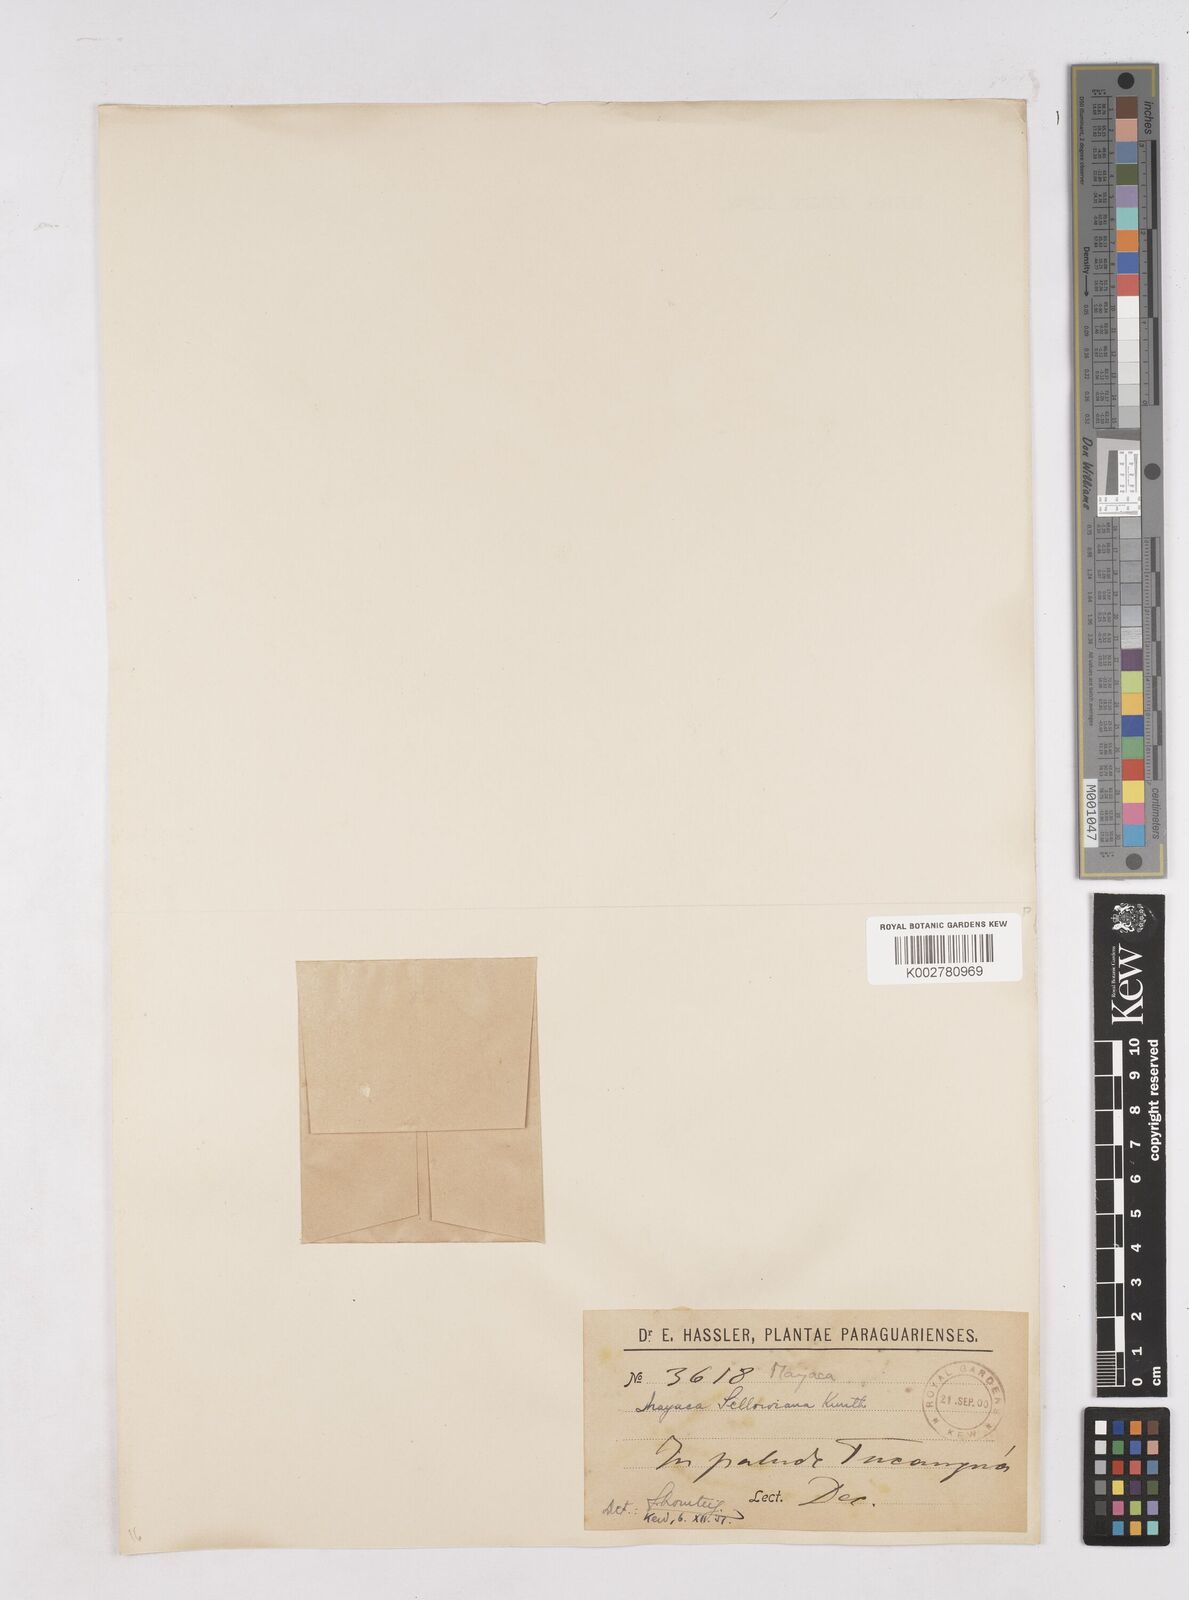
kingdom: Plantae
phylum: Tracheophyta
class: Liliopsida
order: Poales
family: Mayacaceae
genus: Mayaca
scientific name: Mayaca sellowiana
